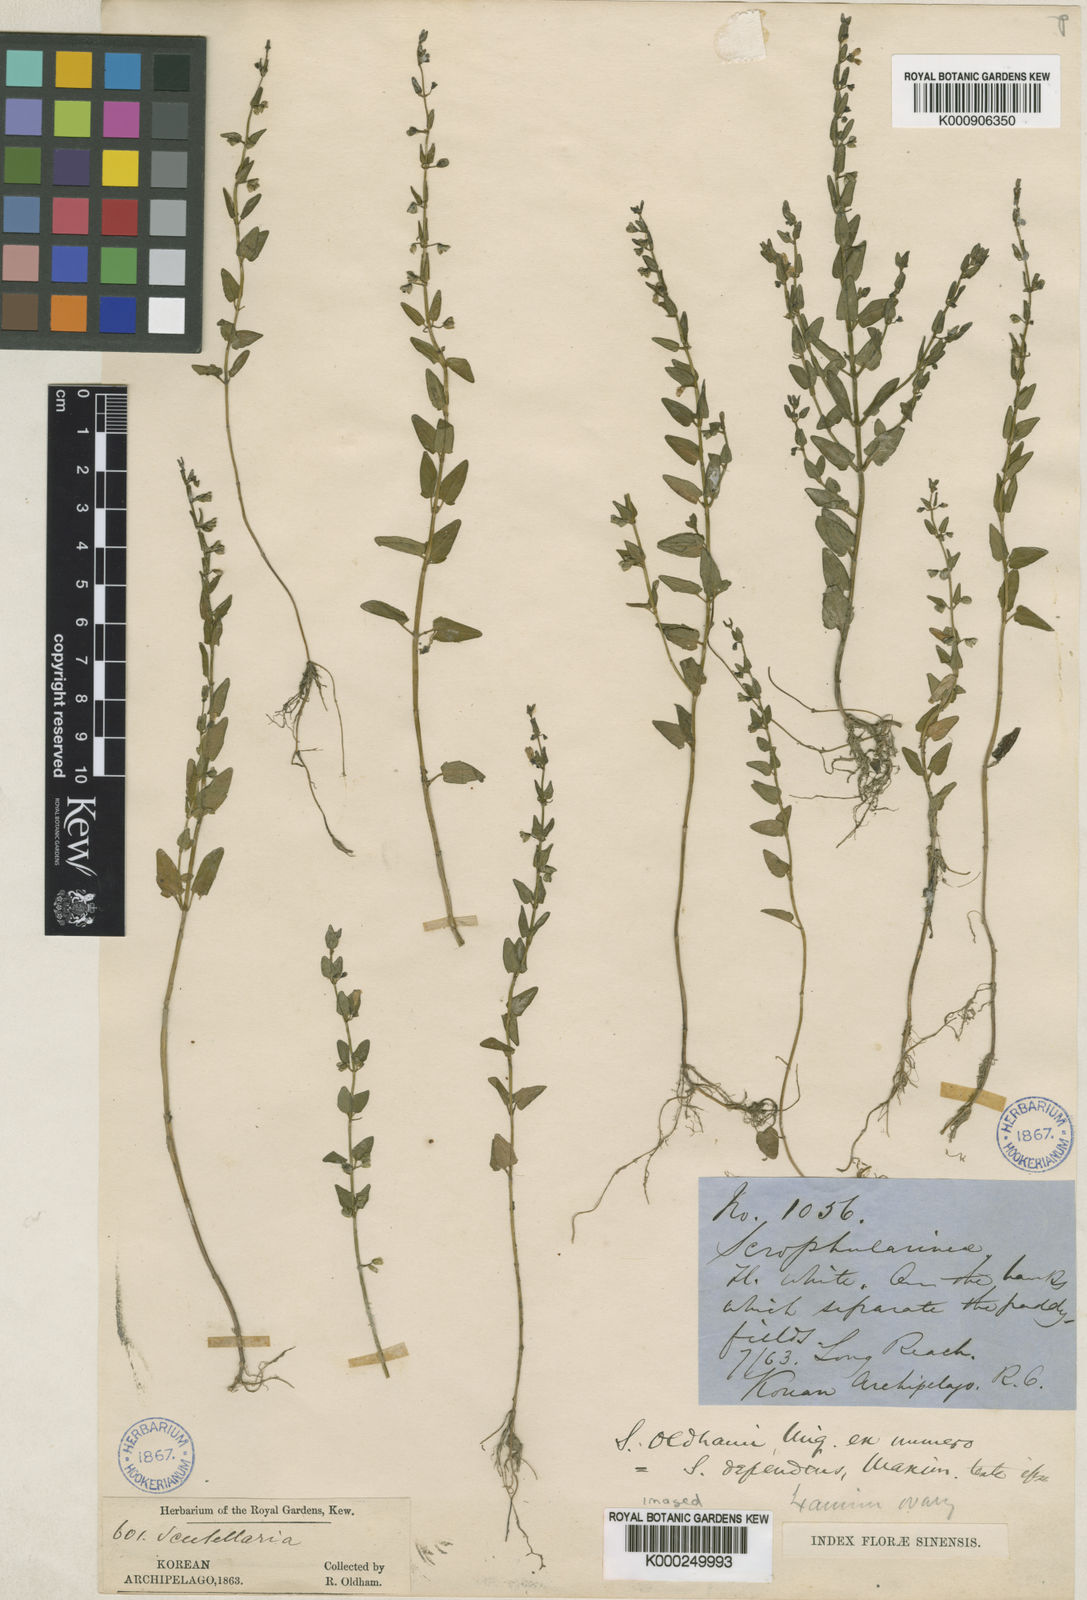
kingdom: Plantae
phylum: Tracheophyta
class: Magnoliopsida
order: Lamiales
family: Lamiaceae
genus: Scutellaria
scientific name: Scutellaria dependens
